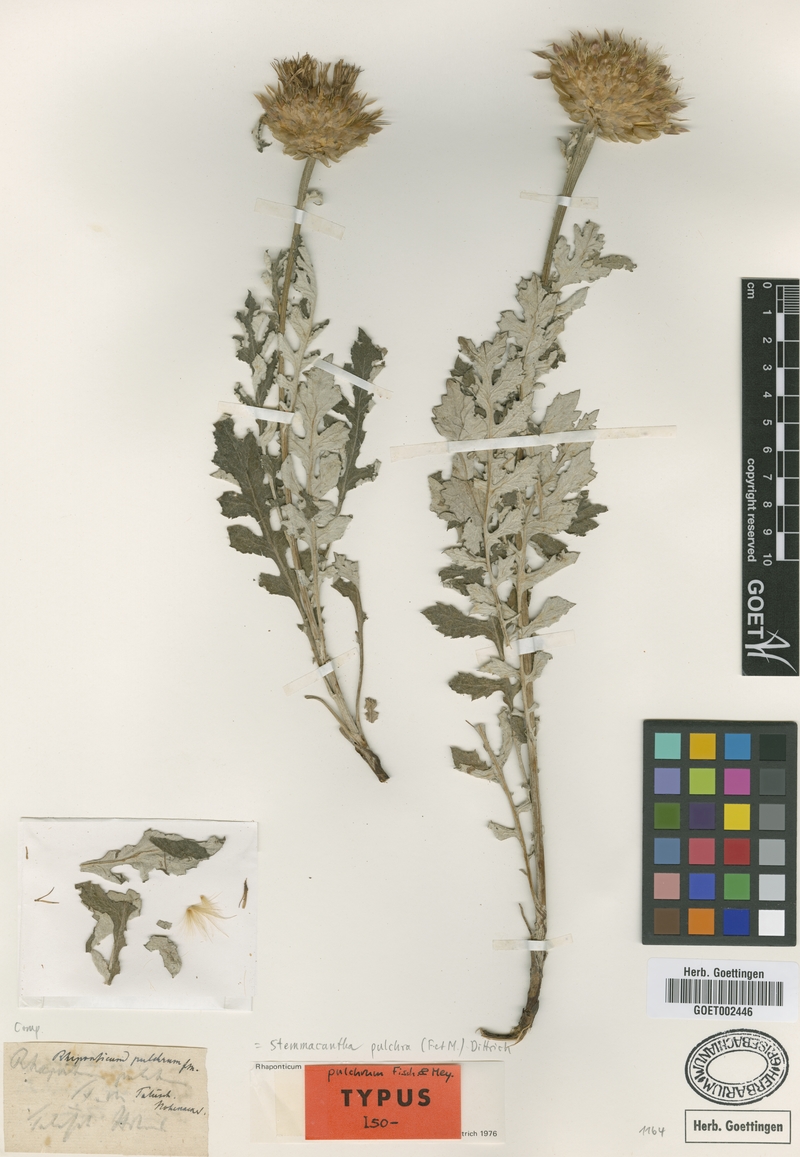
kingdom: Plantae
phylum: Tracheophyta
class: Magnoliopsida
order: Asterales
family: Asteraceae
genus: Leuzea
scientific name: Leuzea pulchra
